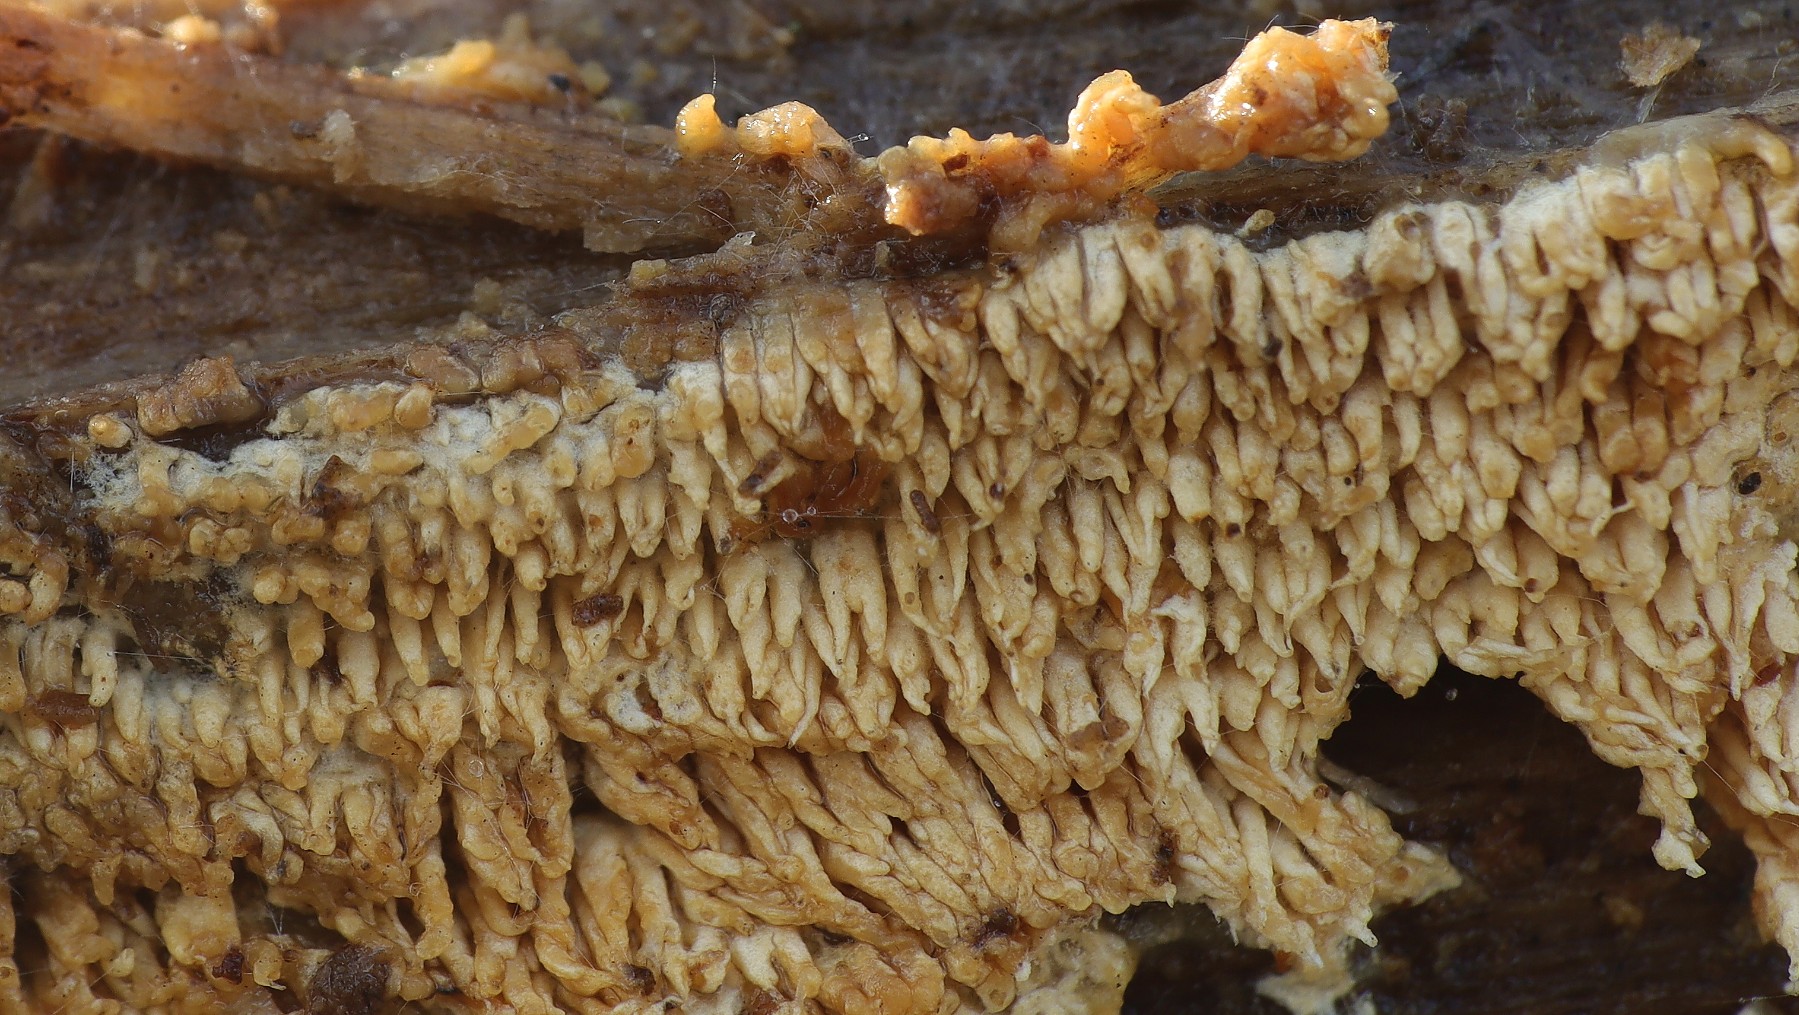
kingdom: Fungi
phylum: Basidiomycota
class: Agaricomycetes
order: Corticiales
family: Corticiaceae
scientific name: Corticiaceae
